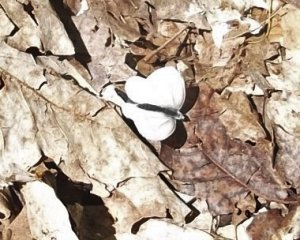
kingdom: Animalia
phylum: Arthropoda
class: Insecta
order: Lepidoptera
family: Pieridae
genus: Pieris
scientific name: Pieris oleracea
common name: Mustard White
